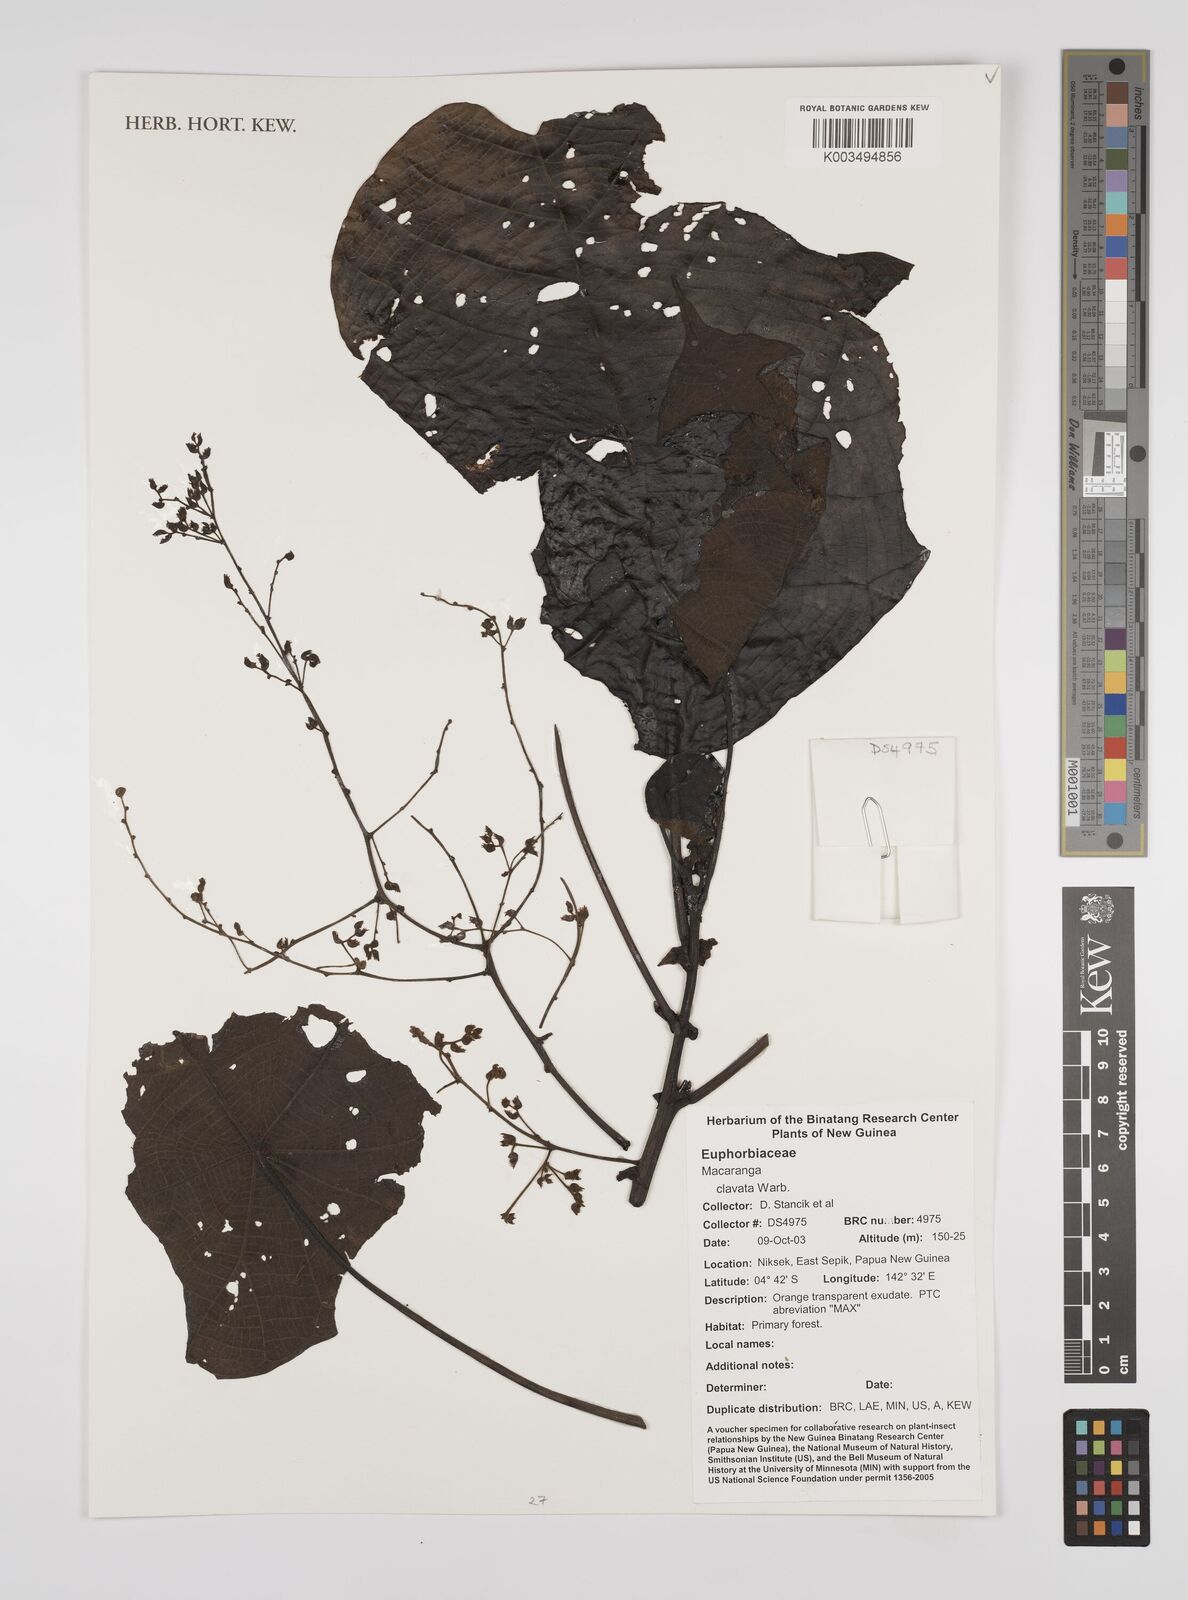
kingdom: Plantae
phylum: Tracheophyta
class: Magnoliopsida
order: Malpighiales
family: Euphorbiaceae
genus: Macaranga
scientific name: Macaranga clavata
